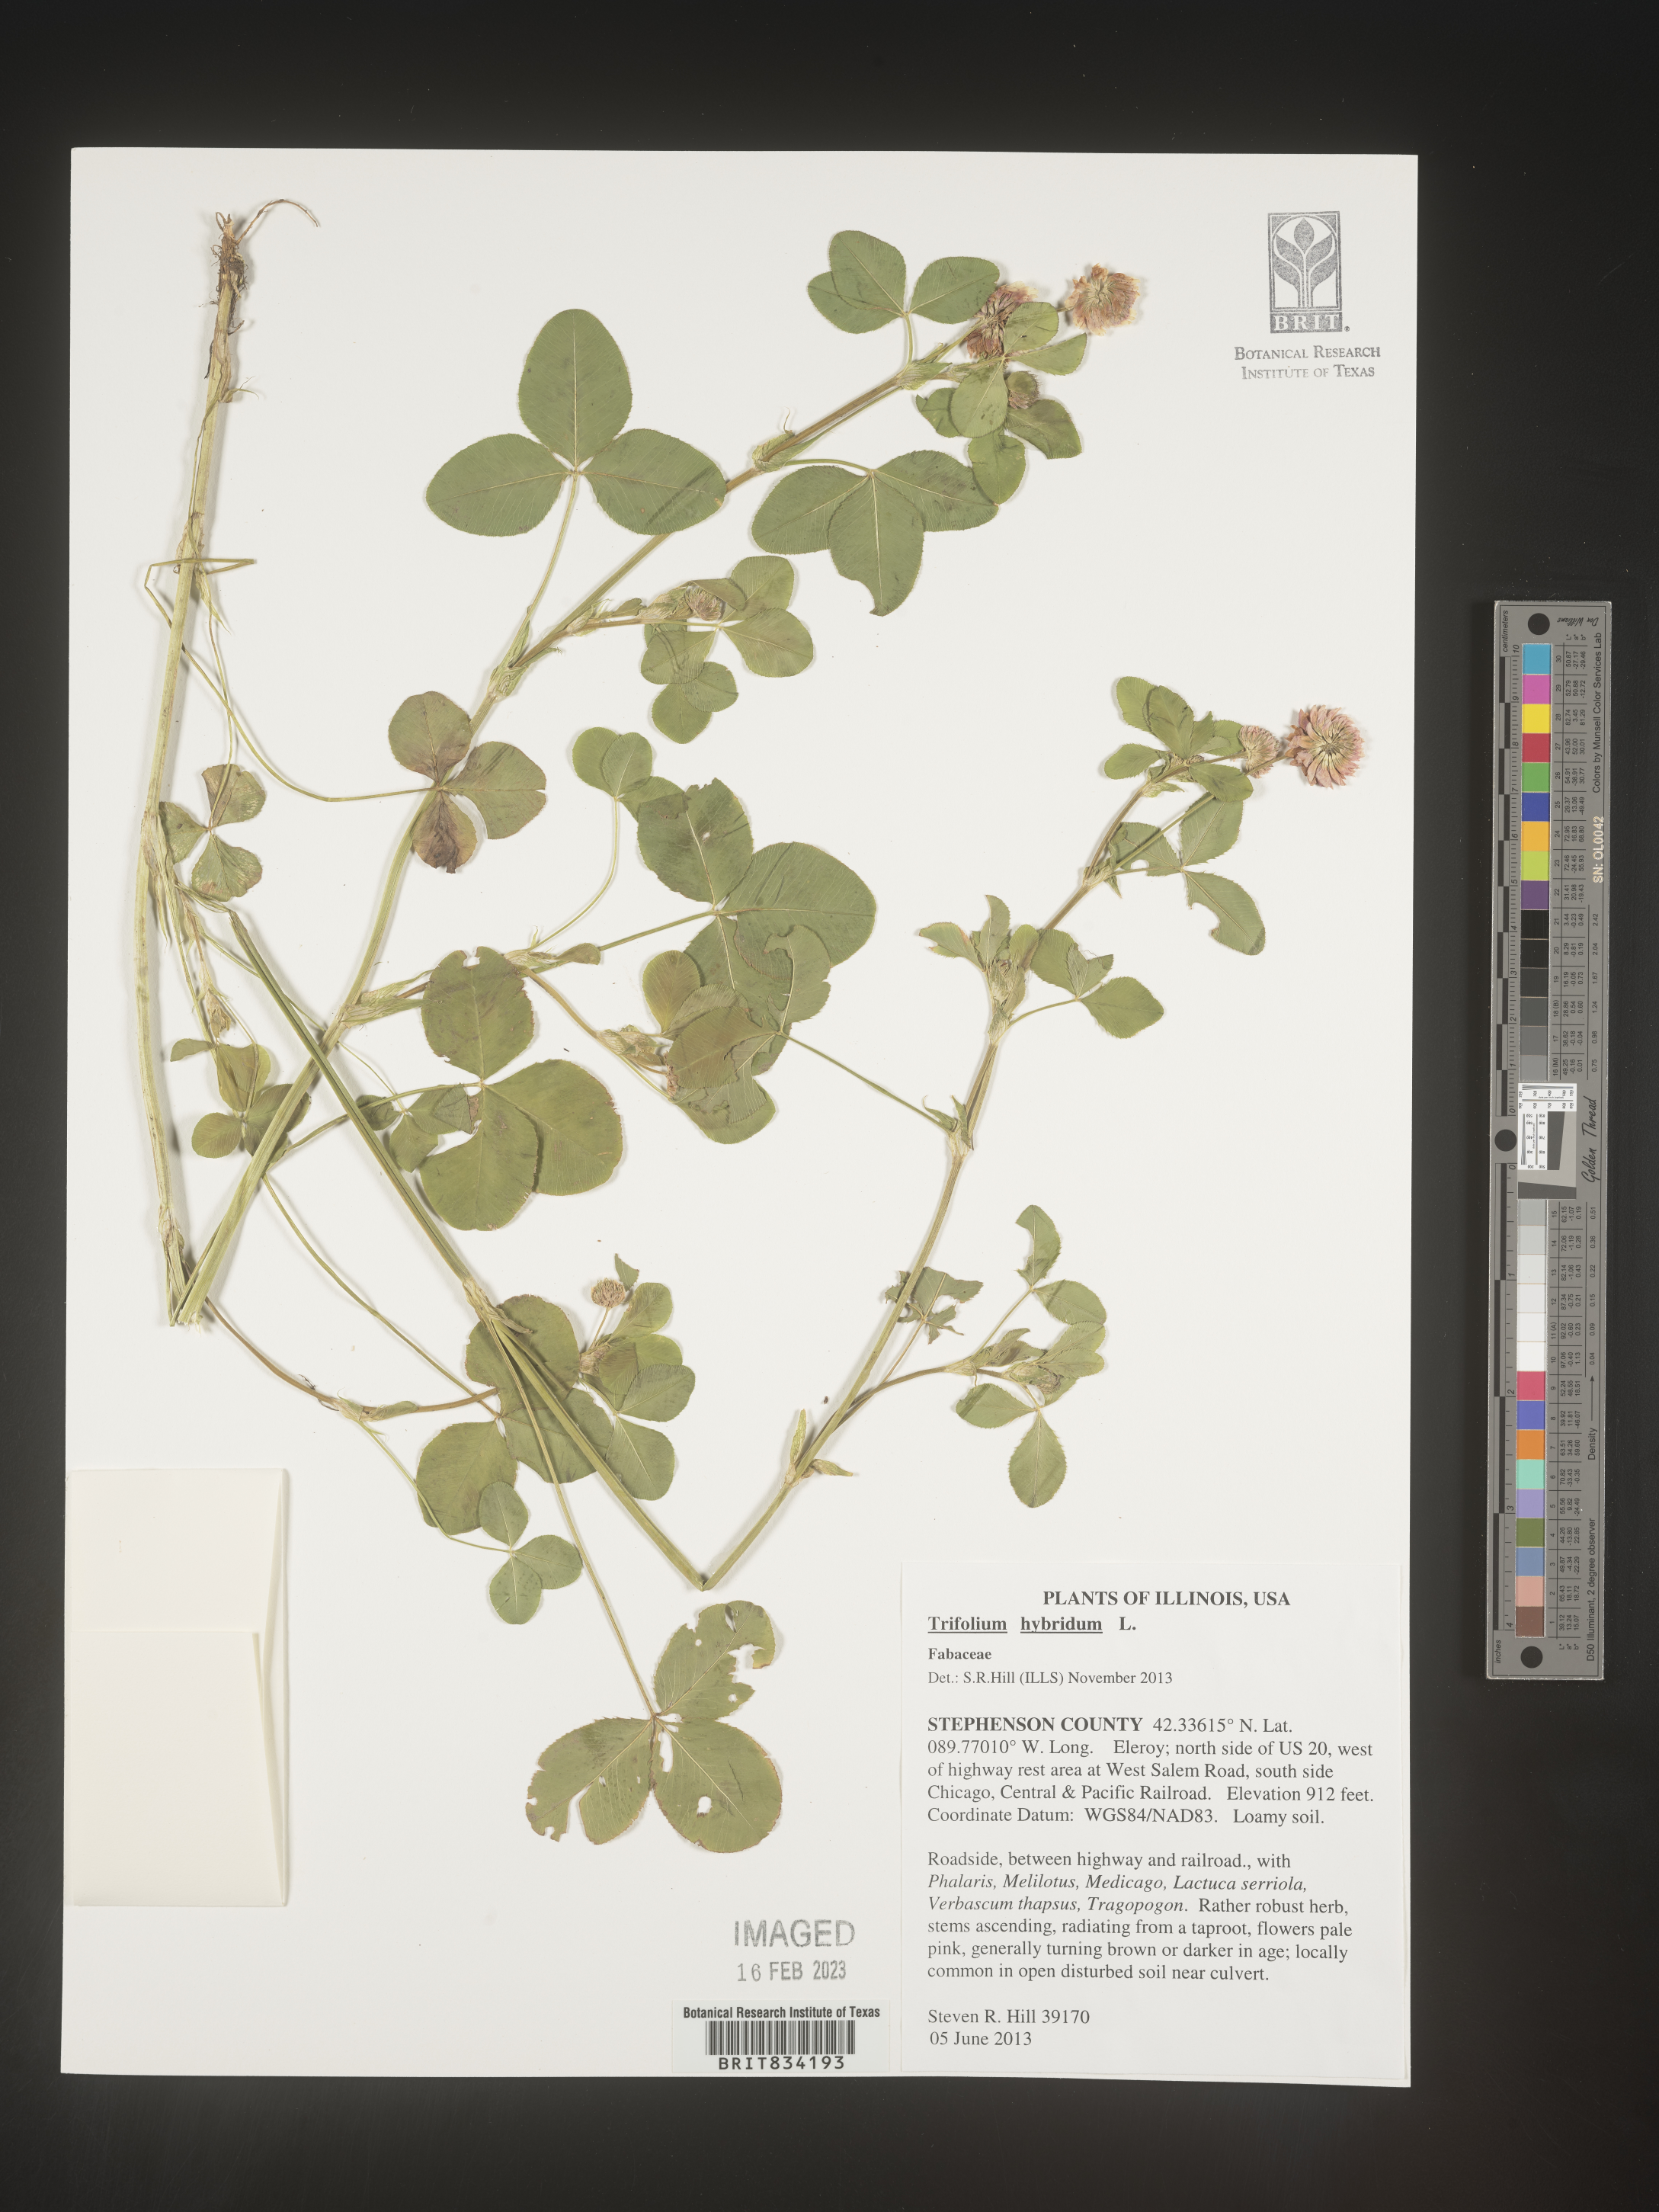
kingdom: Plantae
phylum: Tracheophyta
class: Magnoliopsida
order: Fabales
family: Fabaceae
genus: Trifolium
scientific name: Trifolium hybridum
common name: Alsike clover
